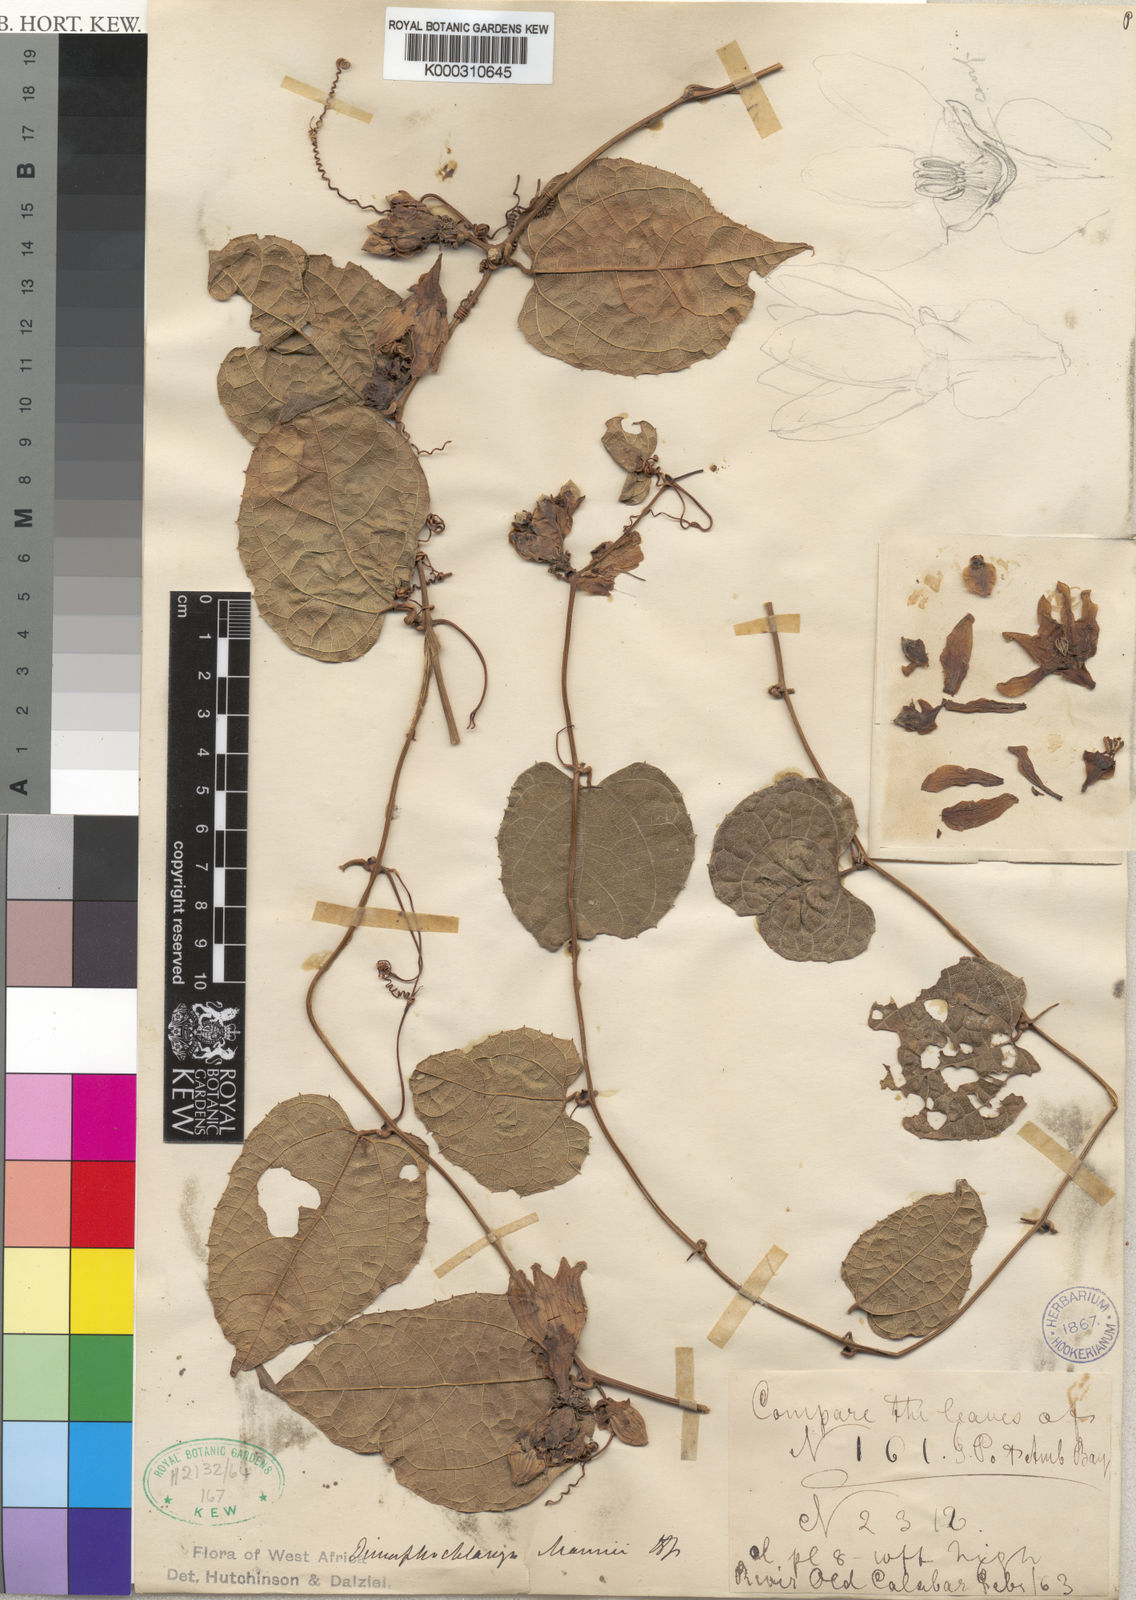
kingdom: Plantae
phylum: Tracheophyta
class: Magnoliopsida
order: Cucurbitales
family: Cucurbitaceae
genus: Momordica
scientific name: Momordica
